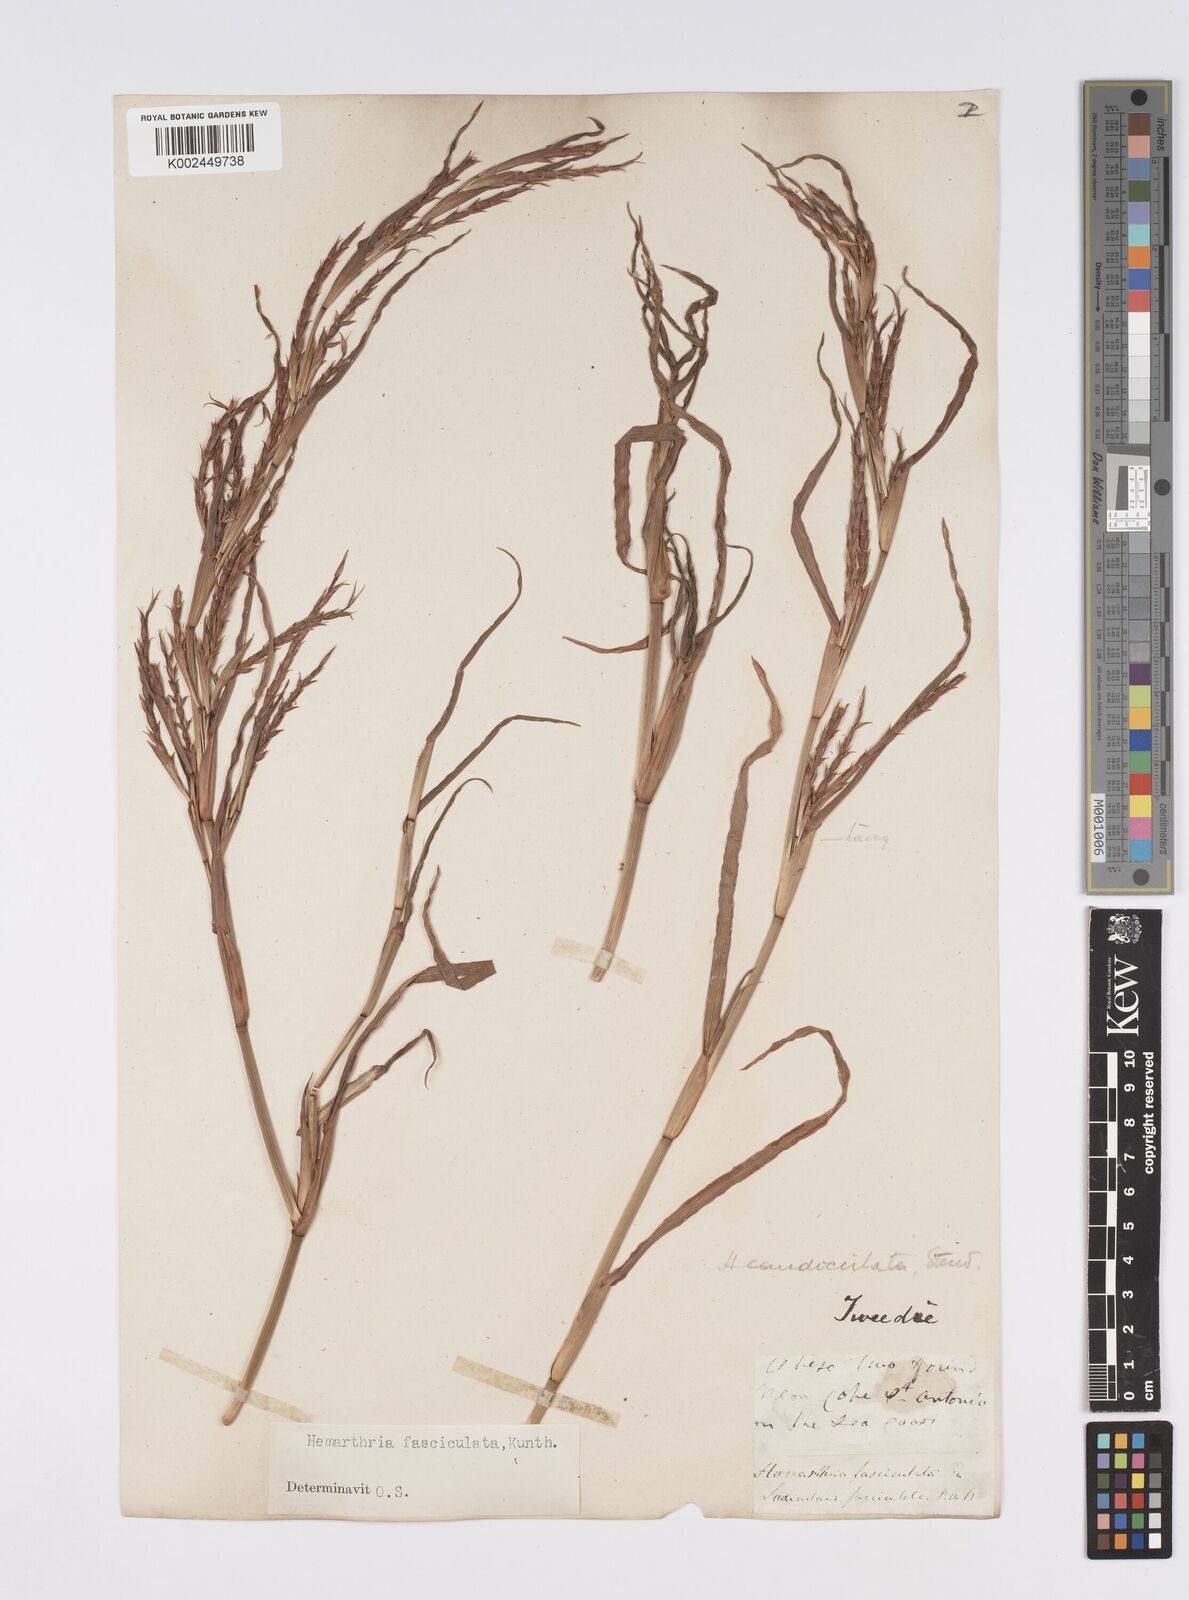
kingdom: Plantae
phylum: Tracheophyta
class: Liliopsida
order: Poales
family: Poaceae
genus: Hemarthria
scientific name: Hemarthria altissima
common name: African jointgrass
